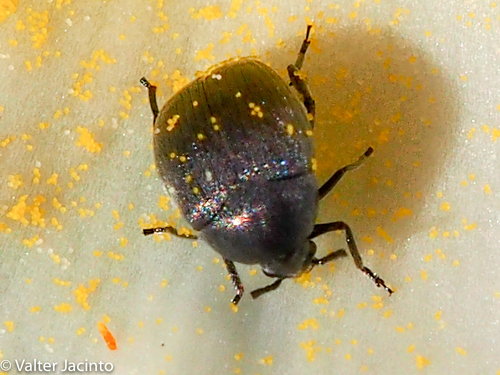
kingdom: Animalia
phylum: Arthropoda
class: Insecta
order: Coleoptera
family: Chrysomelidae
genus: Spermophagus
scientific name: Spermophagus
